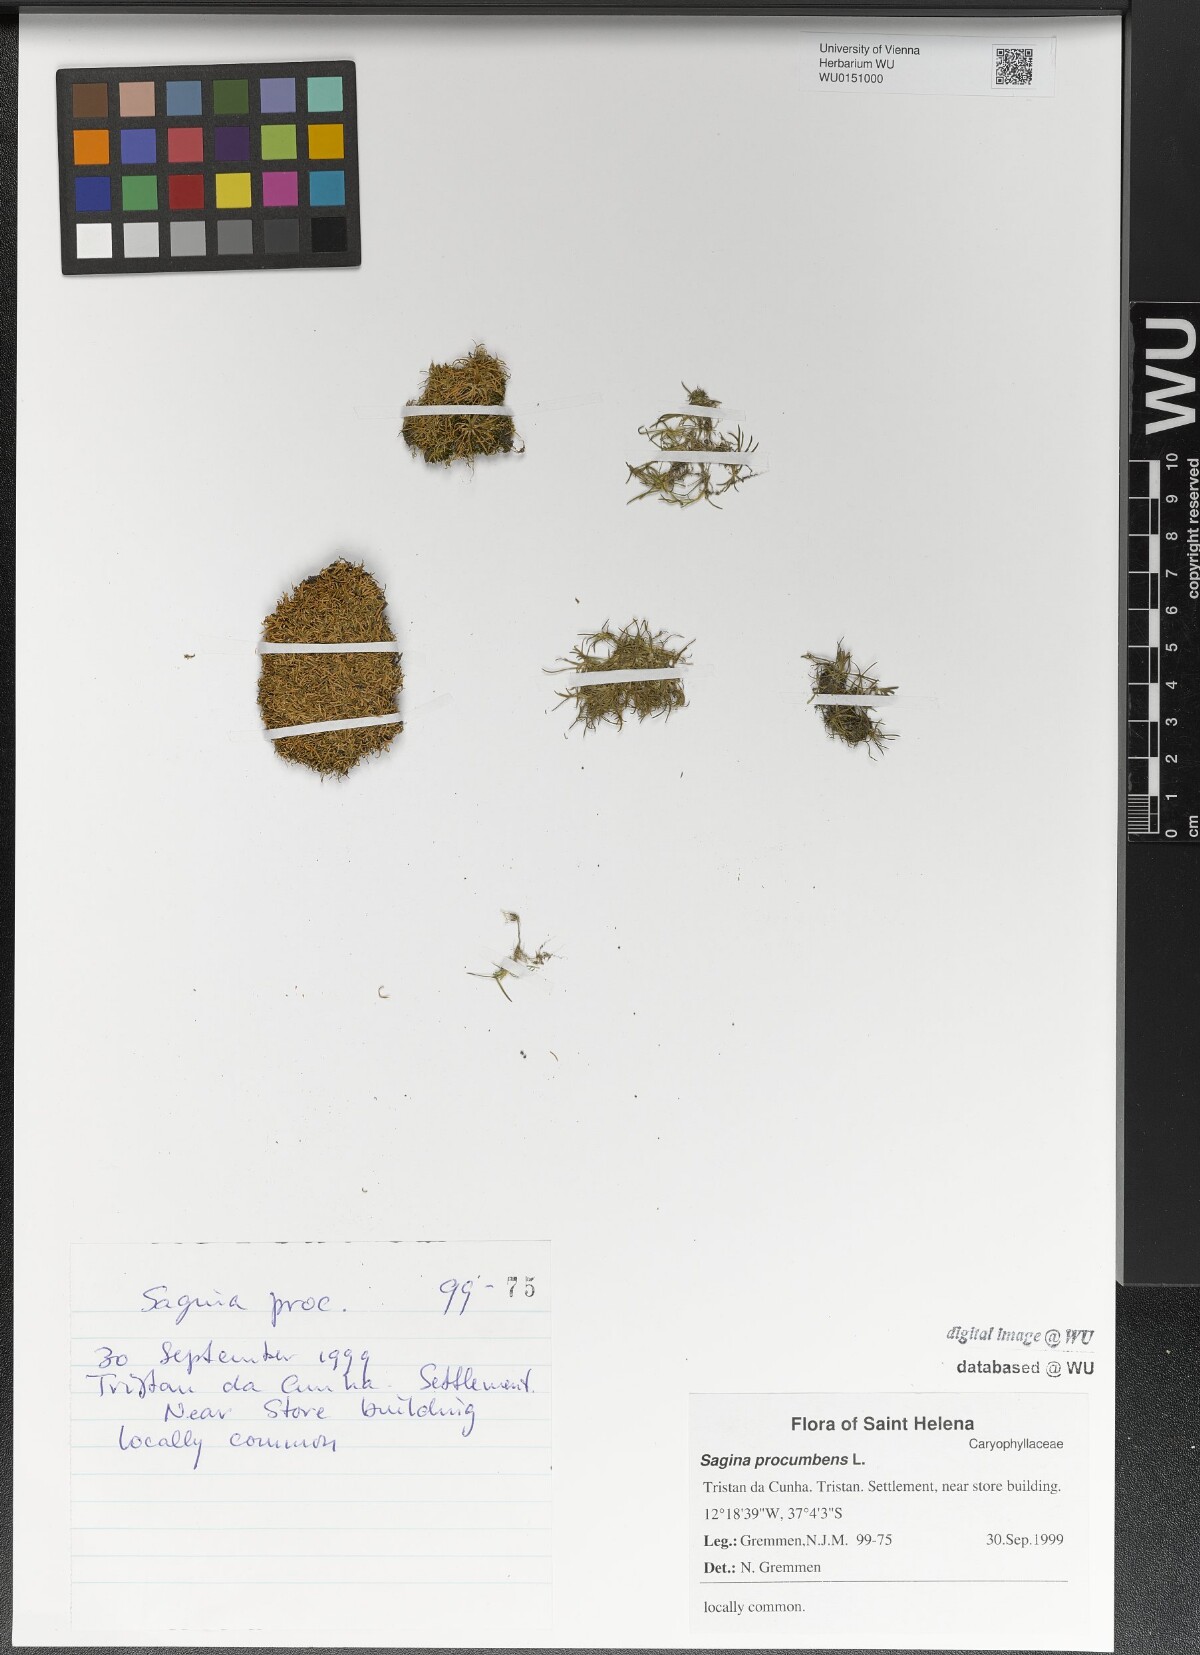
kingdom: Plantae
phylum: Tracheophyta
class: Magnoliopsida
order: Caryophyllales
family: Caryophyllaceae
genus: Sagina
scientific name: Sagina procumbens
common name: Procumbent pearlwort
